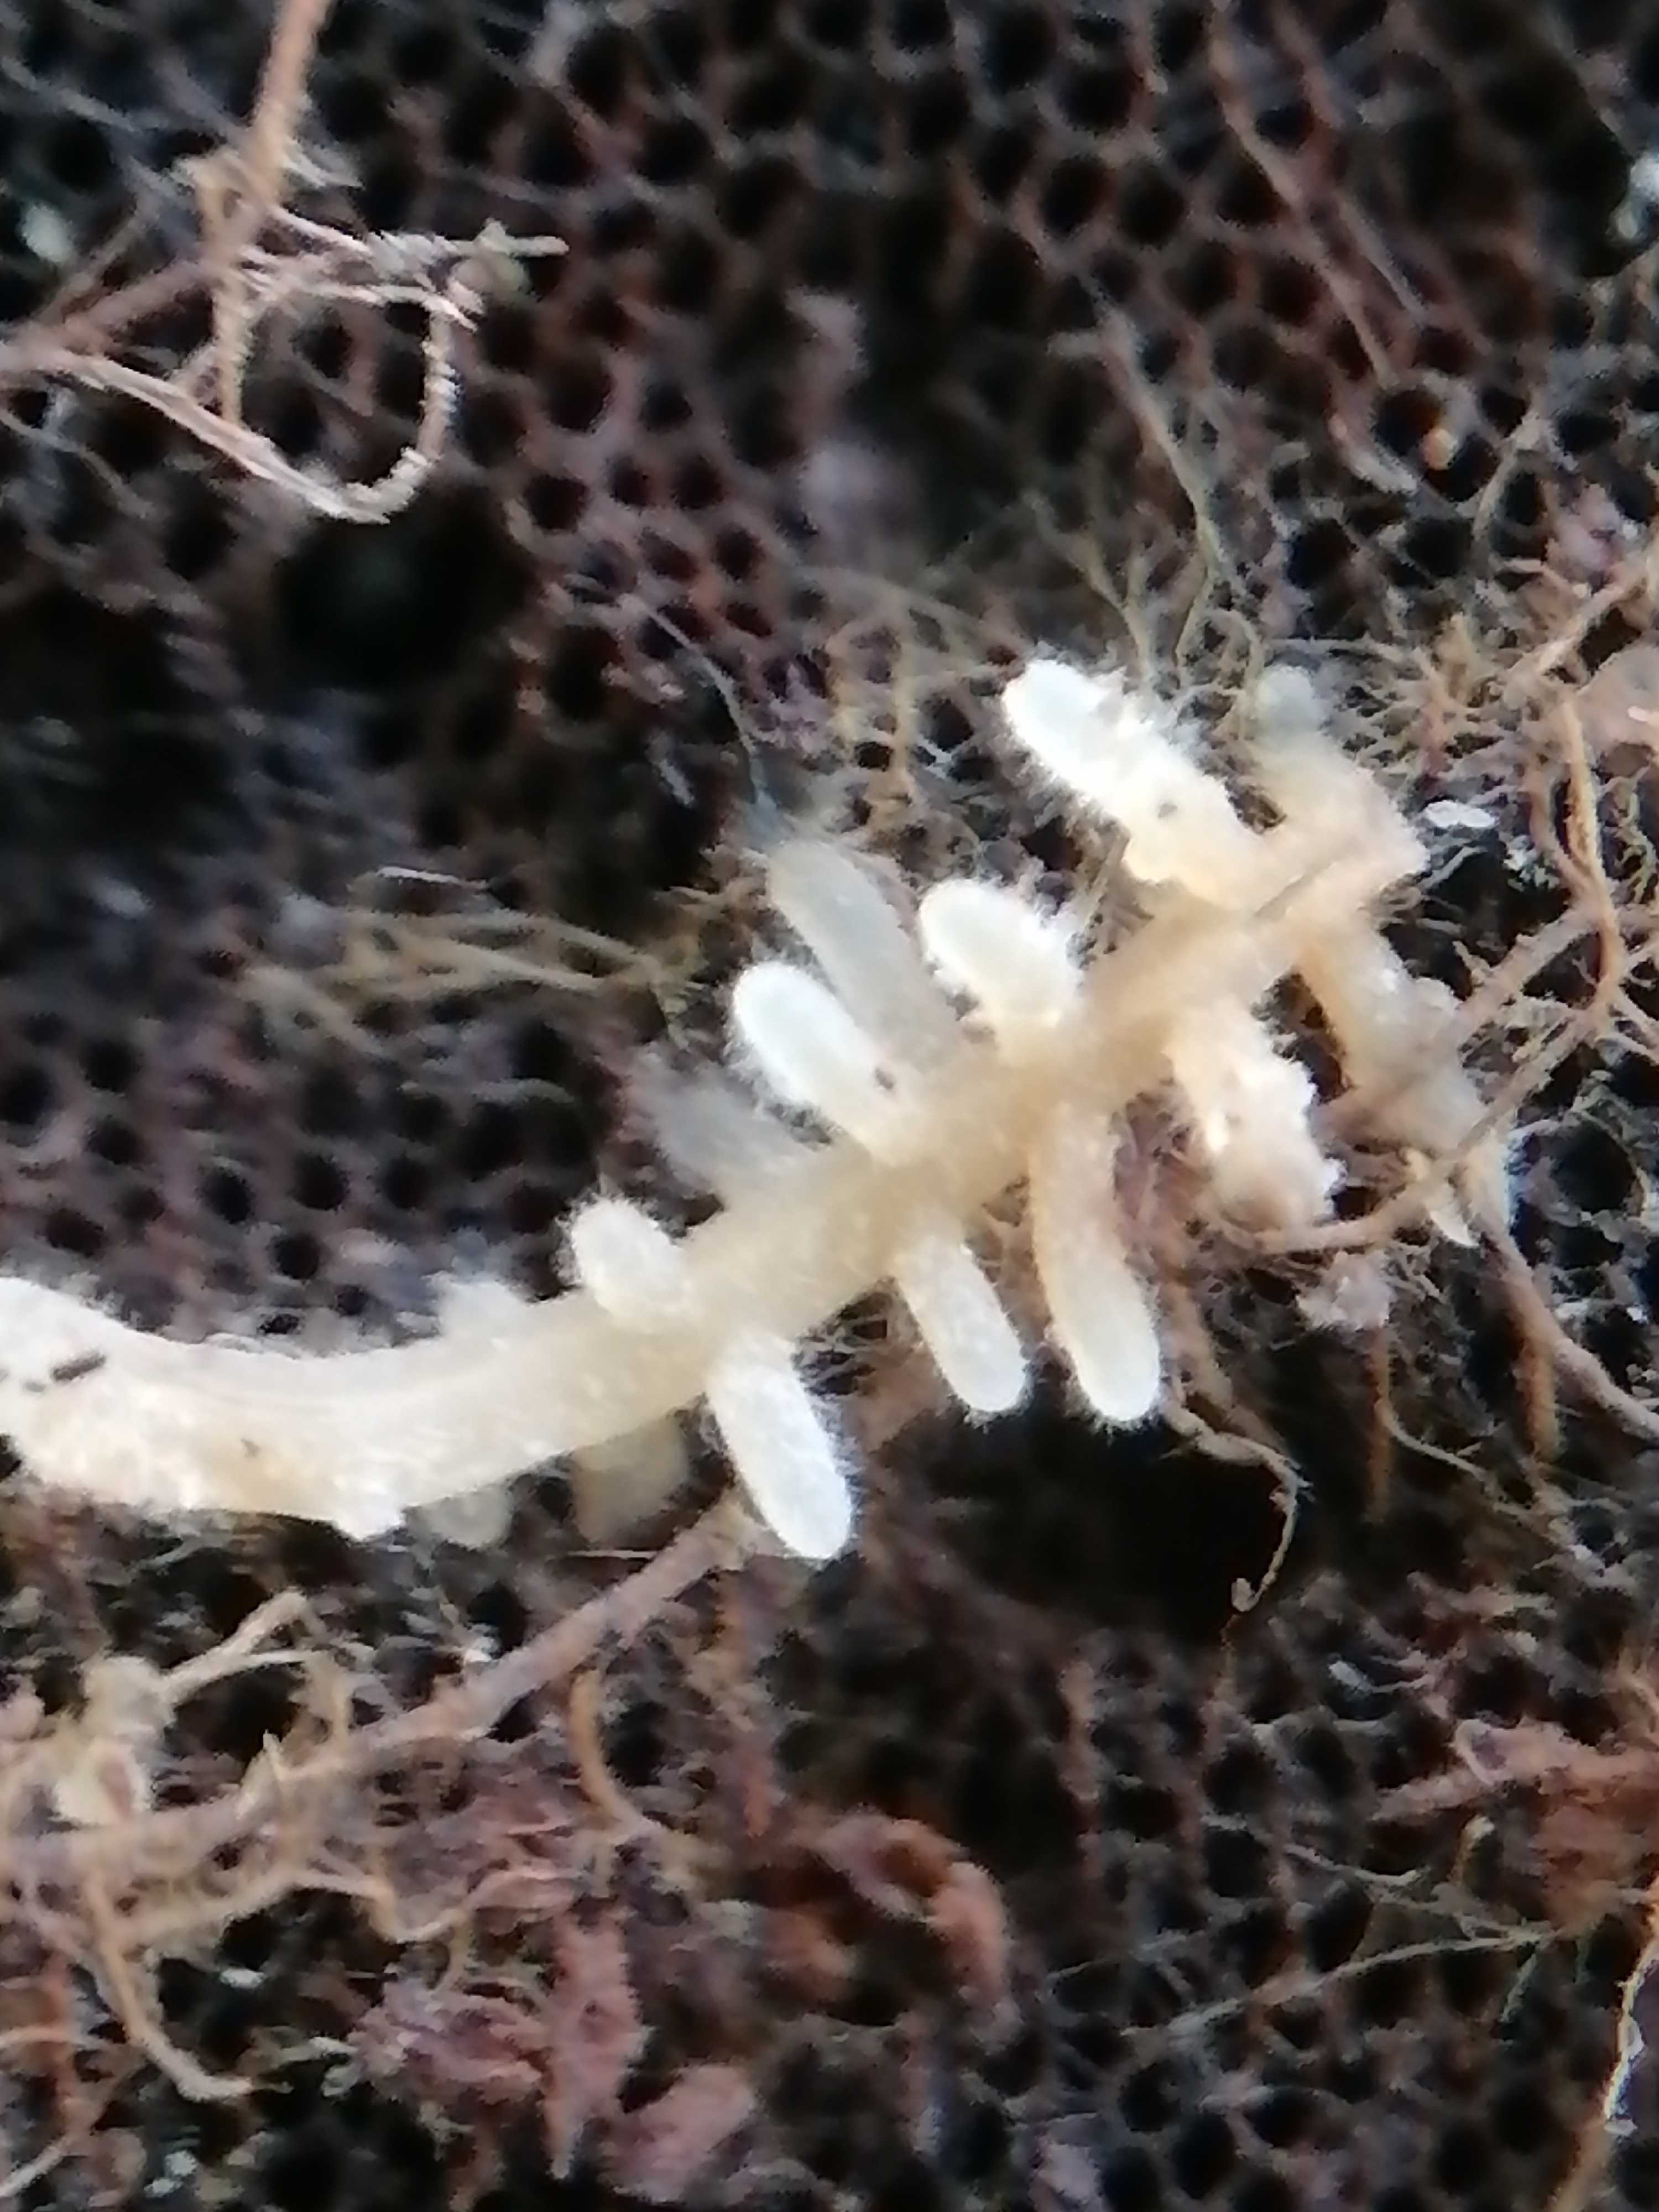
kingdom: Fungi
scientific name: Fungi
